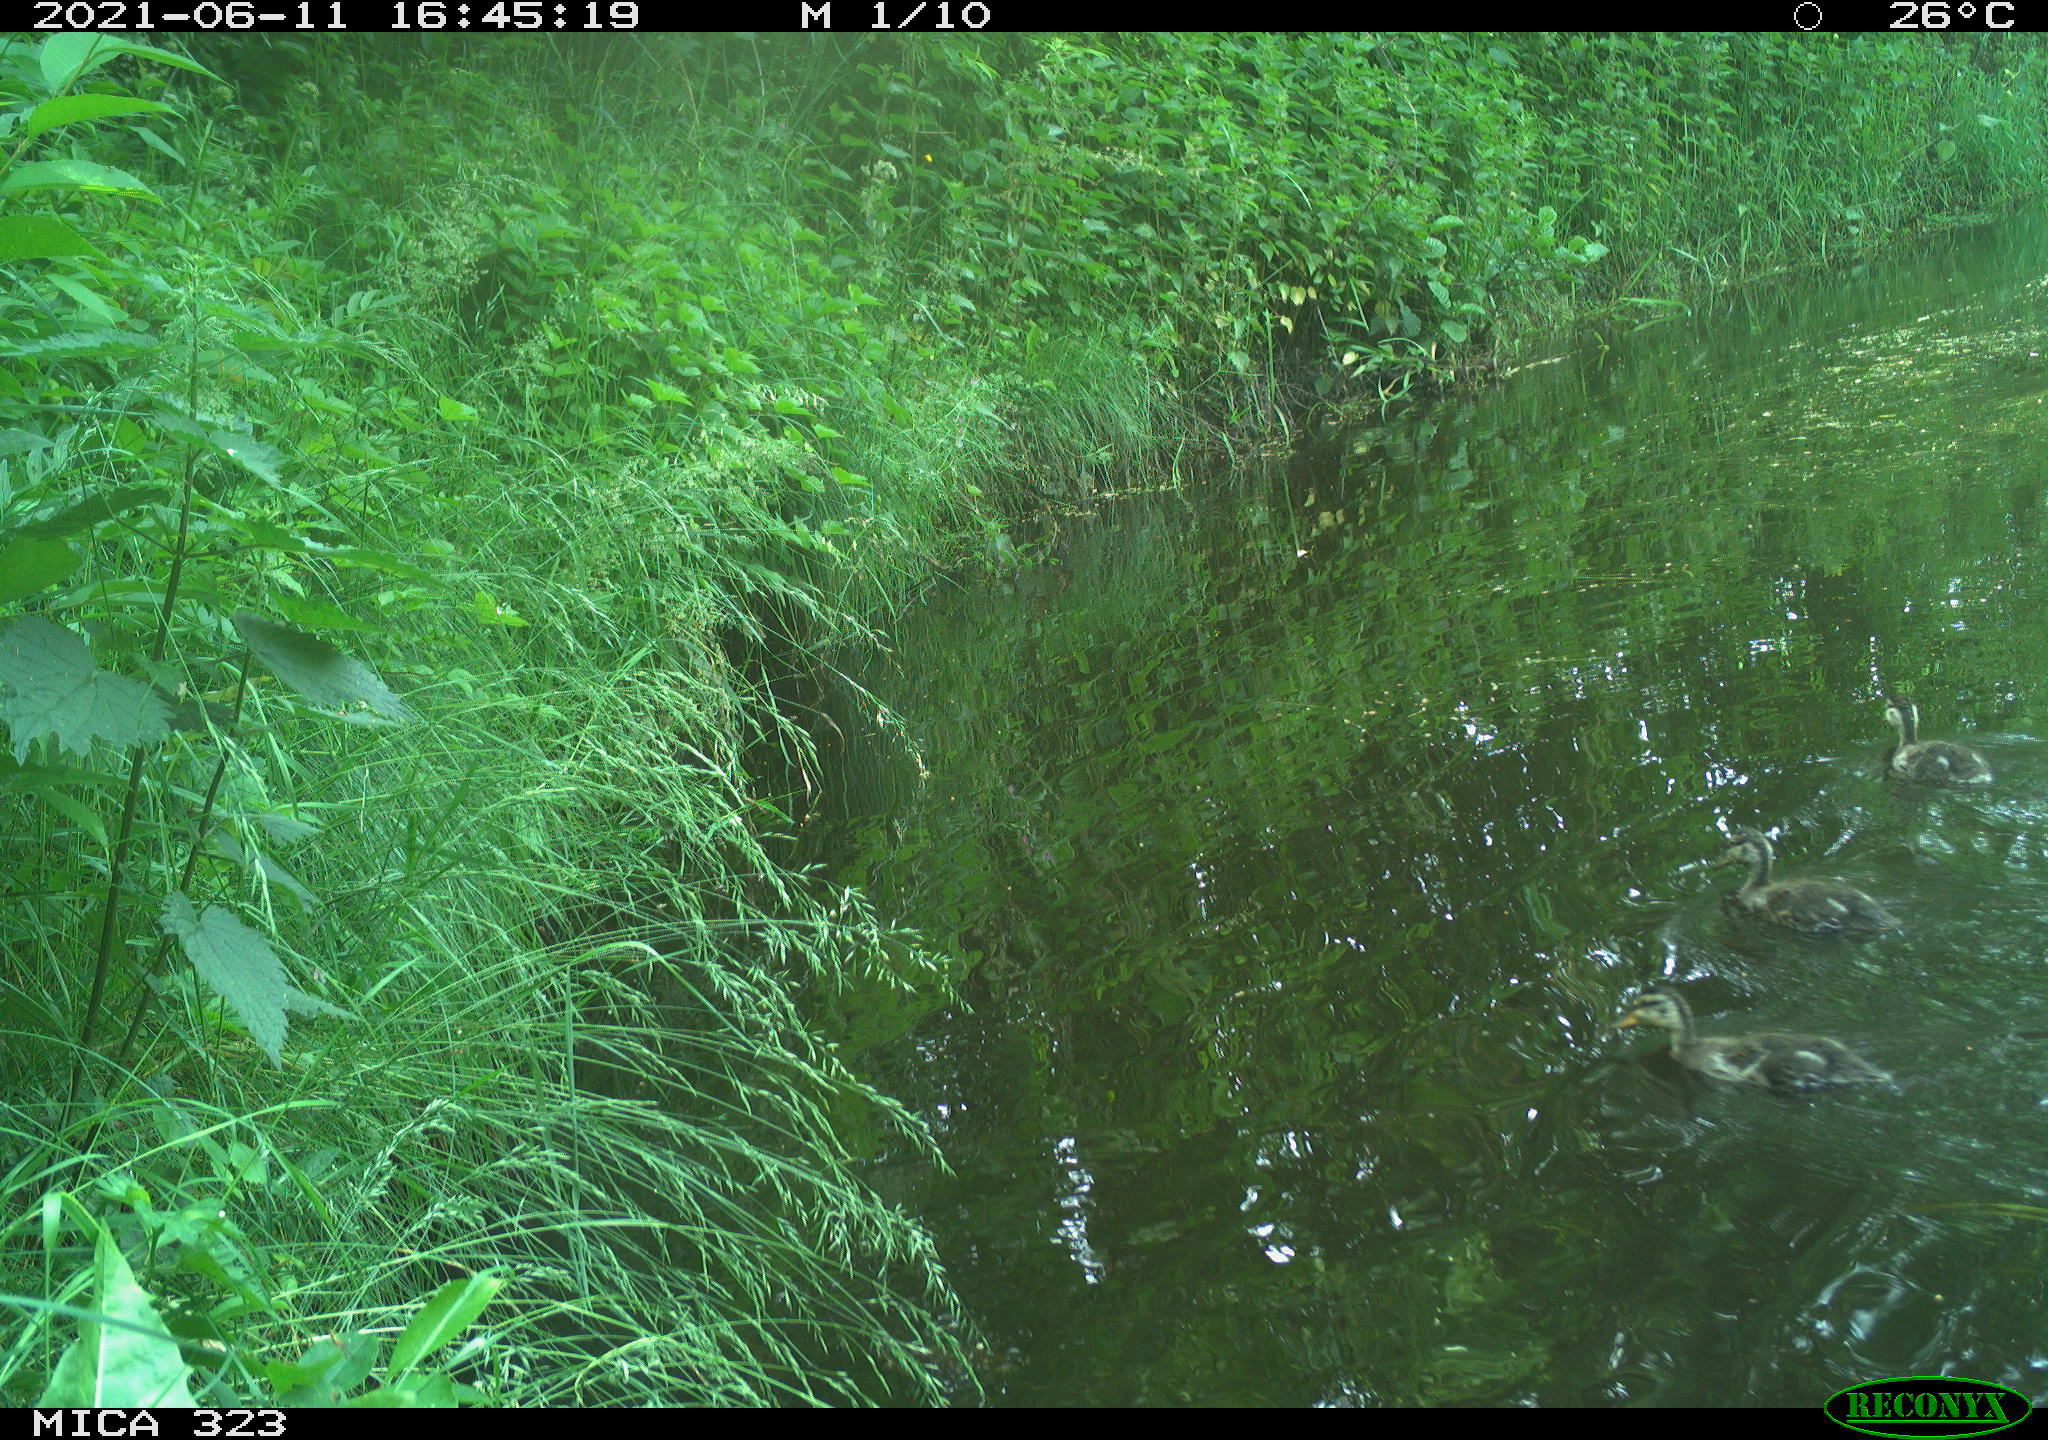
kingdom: Animalia
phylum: Chordata
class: Aves
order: Anseriformes
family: Anatidae
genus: Anas
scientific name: Anas
